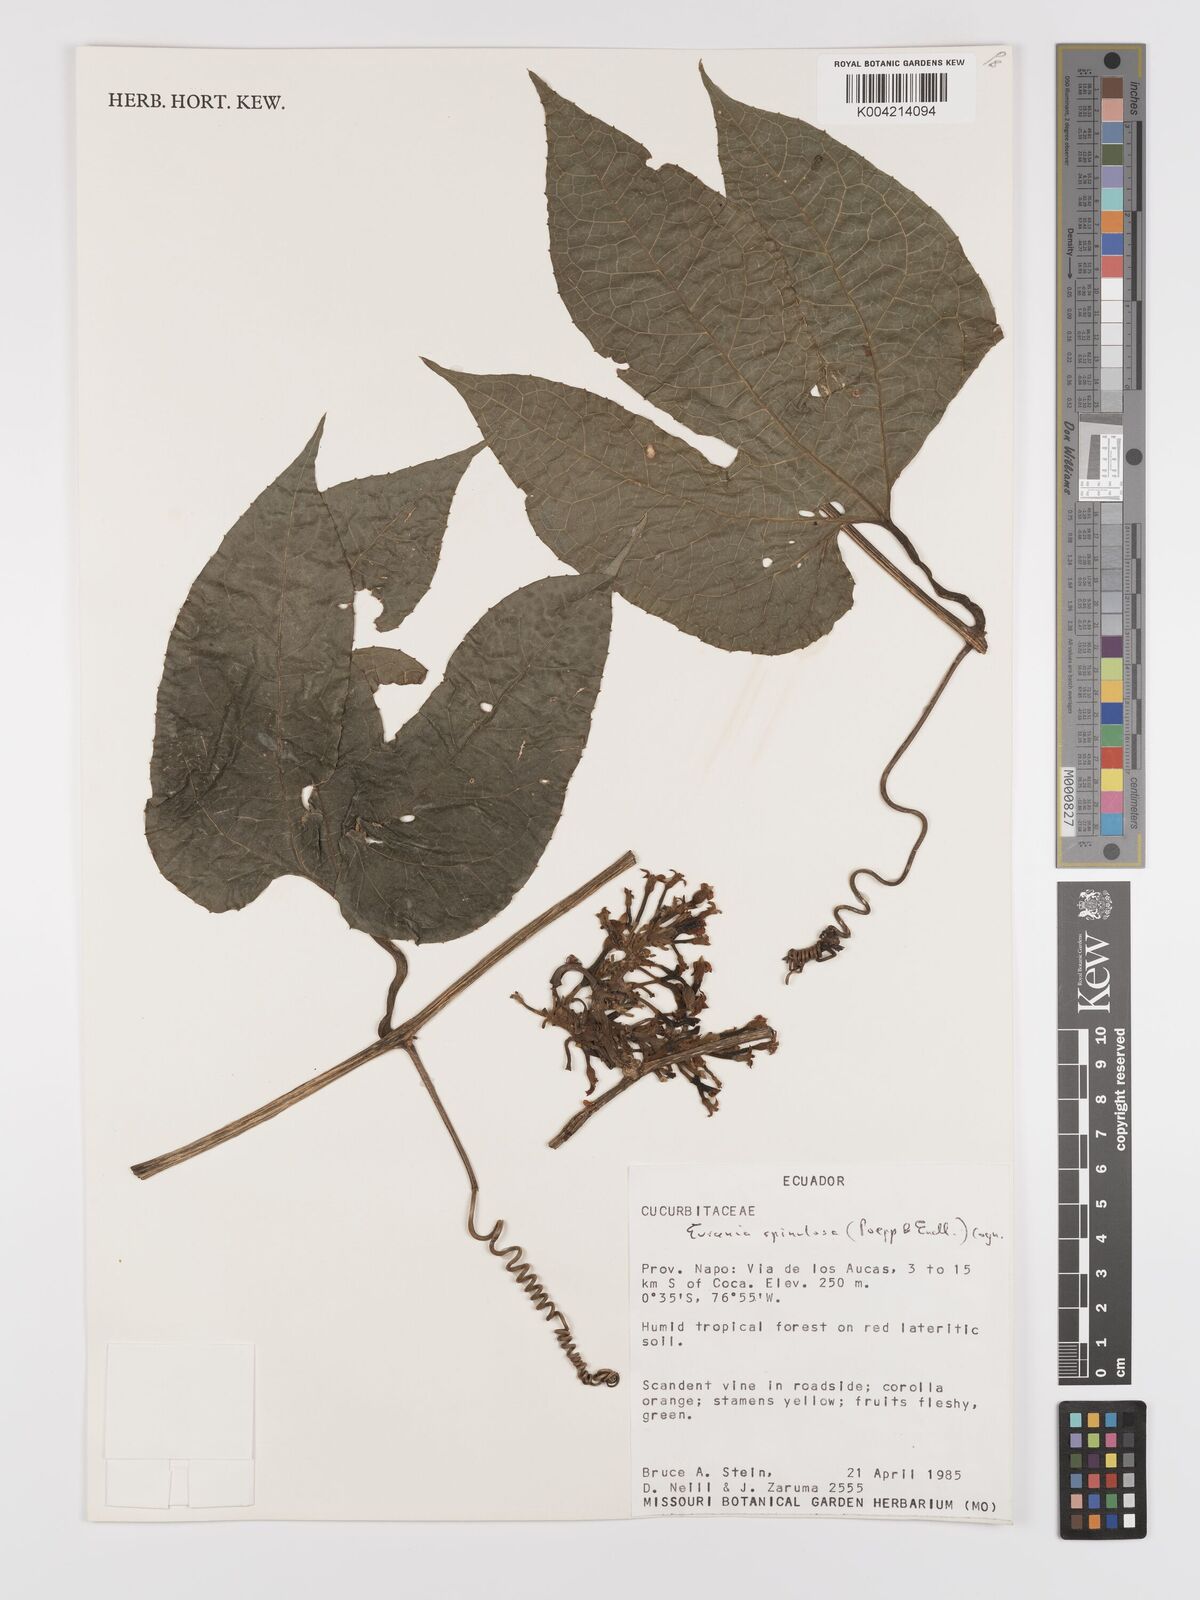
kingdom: Plantae
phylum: Tracheophyta
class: Magnoliopsida
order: Cucurbitales
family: Cucurbitaceae
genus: Gurania
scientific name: Gurania lobata
